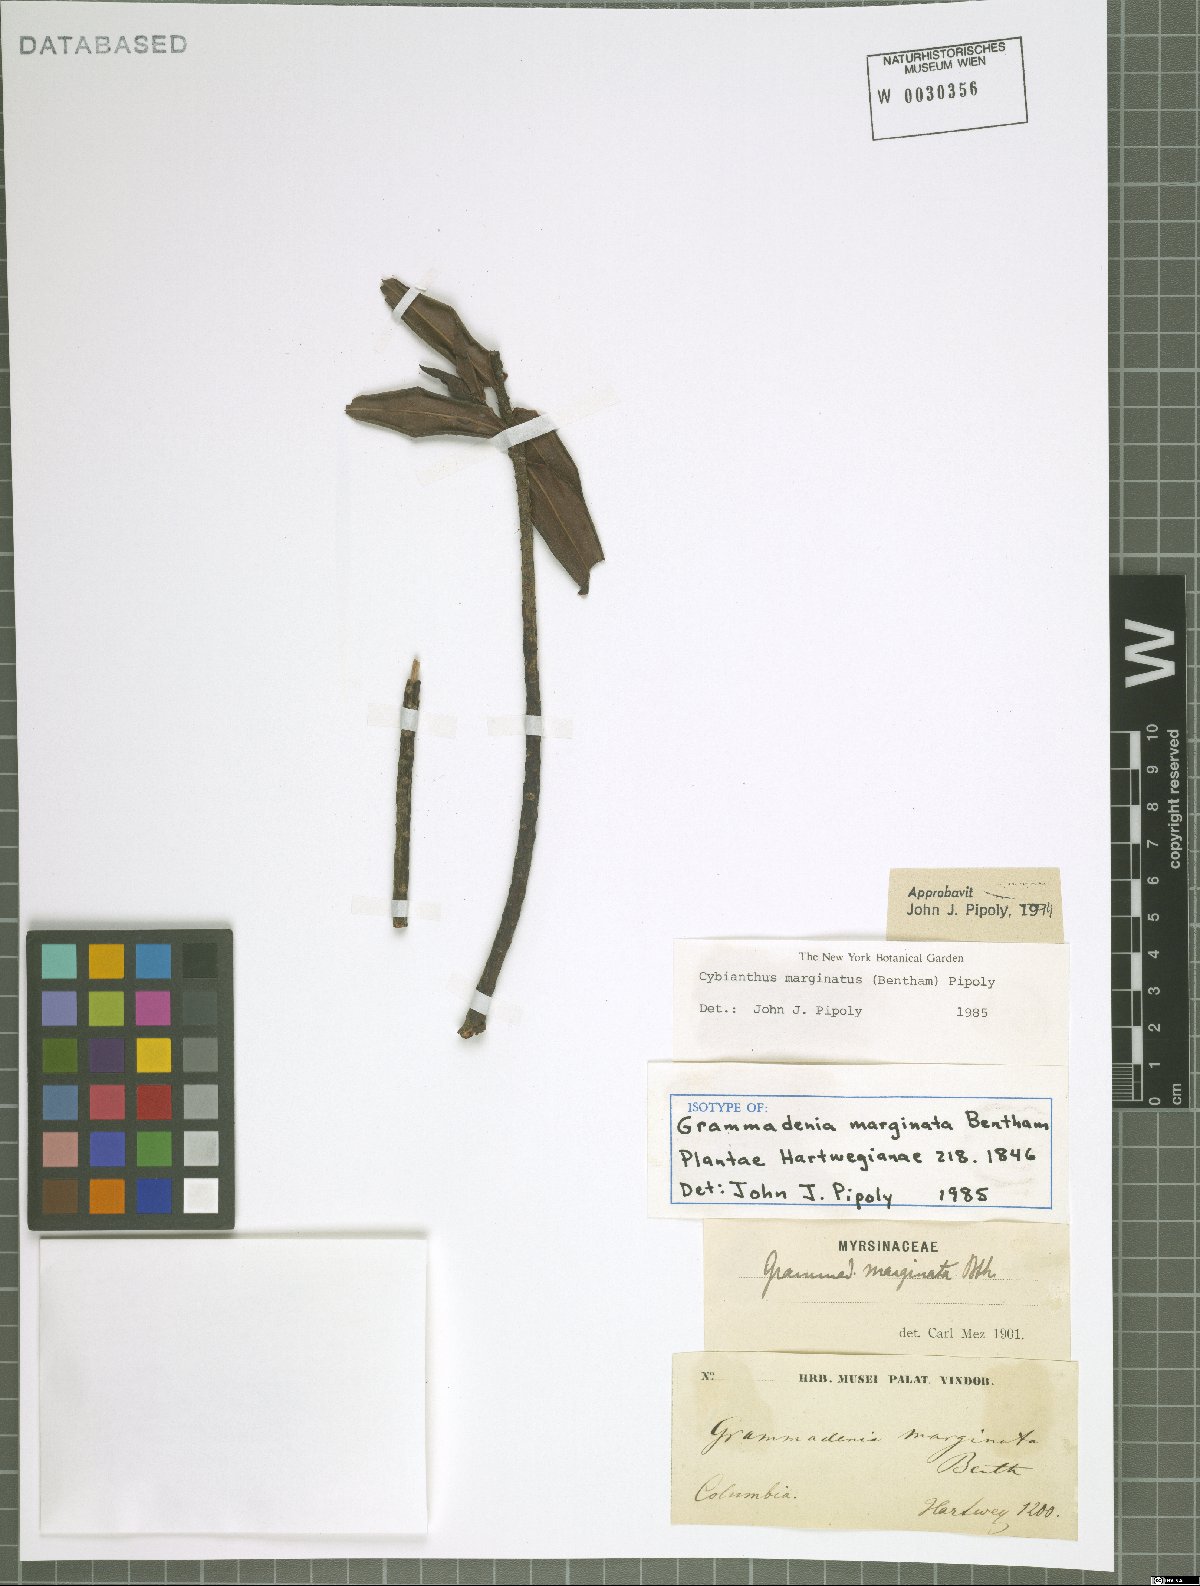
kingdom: Plantae
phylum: Tracheophyta
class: Magnoliopsida
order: Ericales
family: Primulaceae
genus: Cybianthus
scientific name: Cybianthus marginatus
